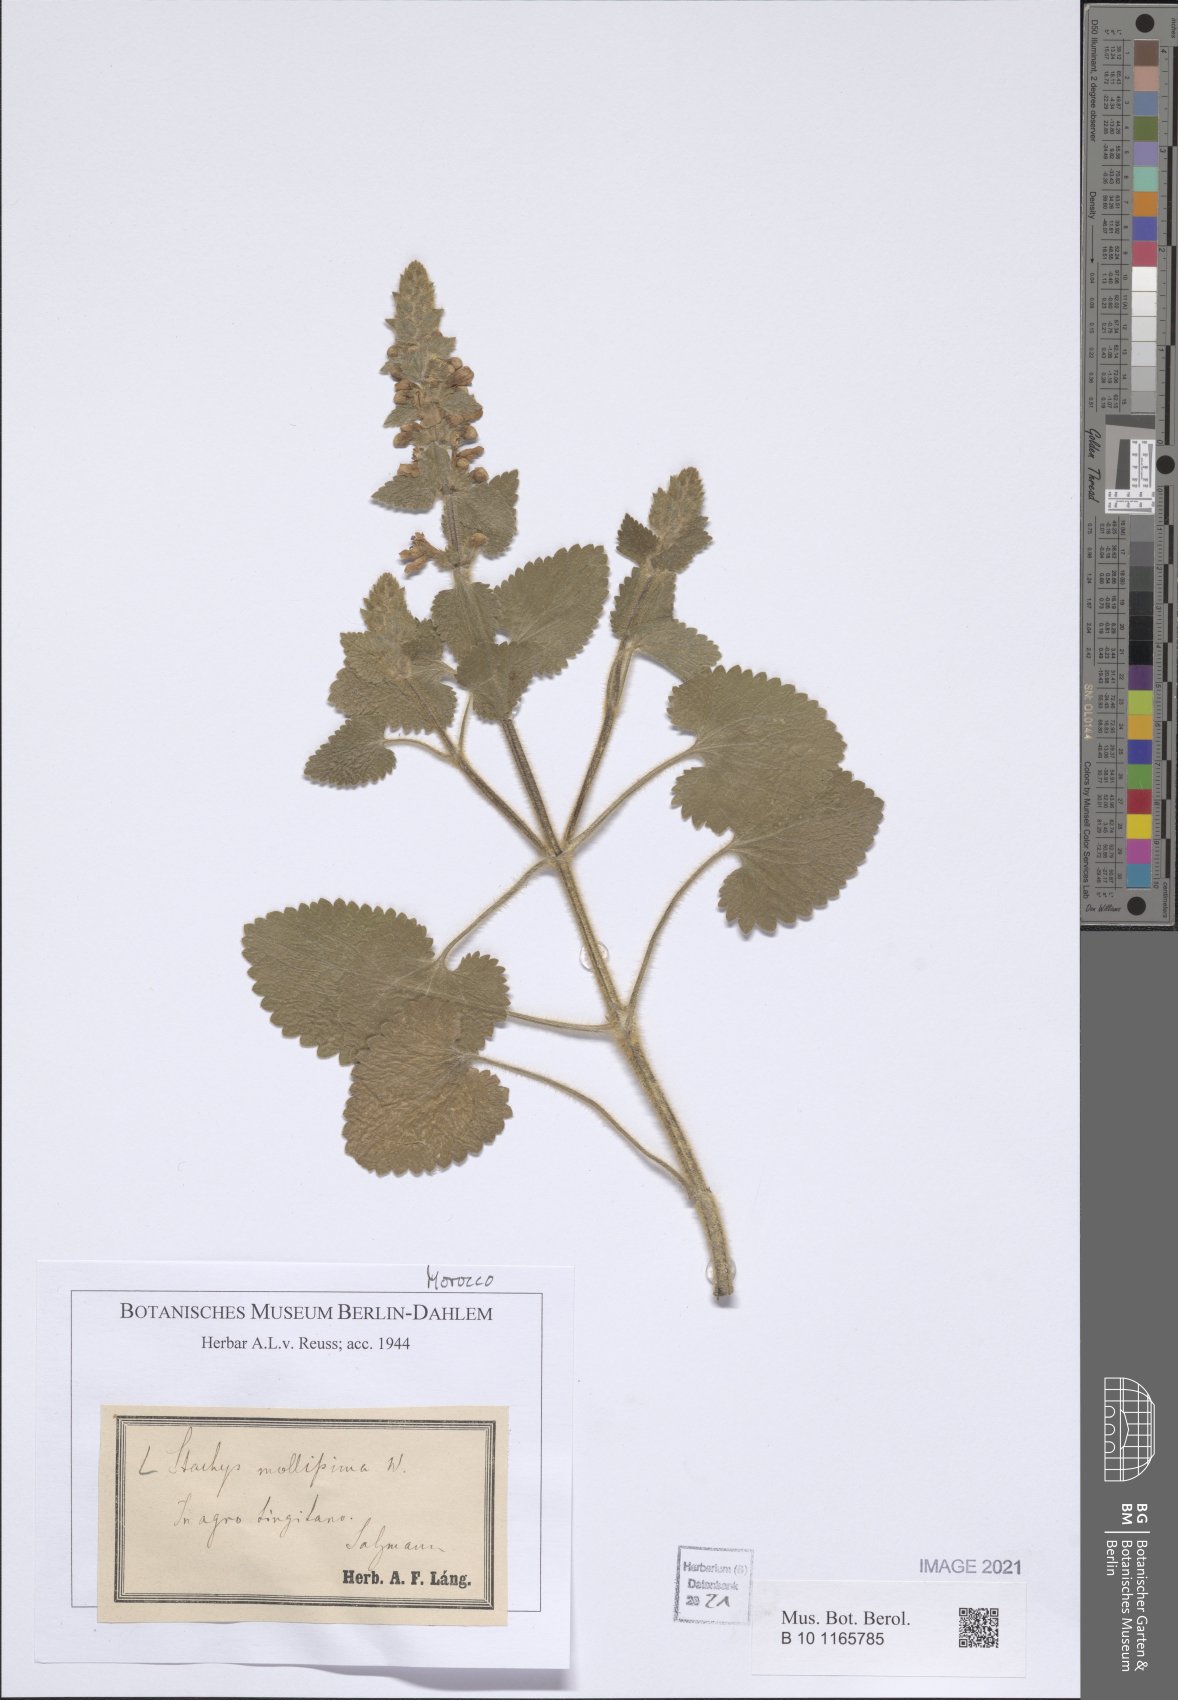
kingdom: Plantae
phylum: Tracheophyta
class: Magnoliopsida
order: Lamiales
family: Lamiaceae
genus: Stachys
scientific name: Stachys mollissima
